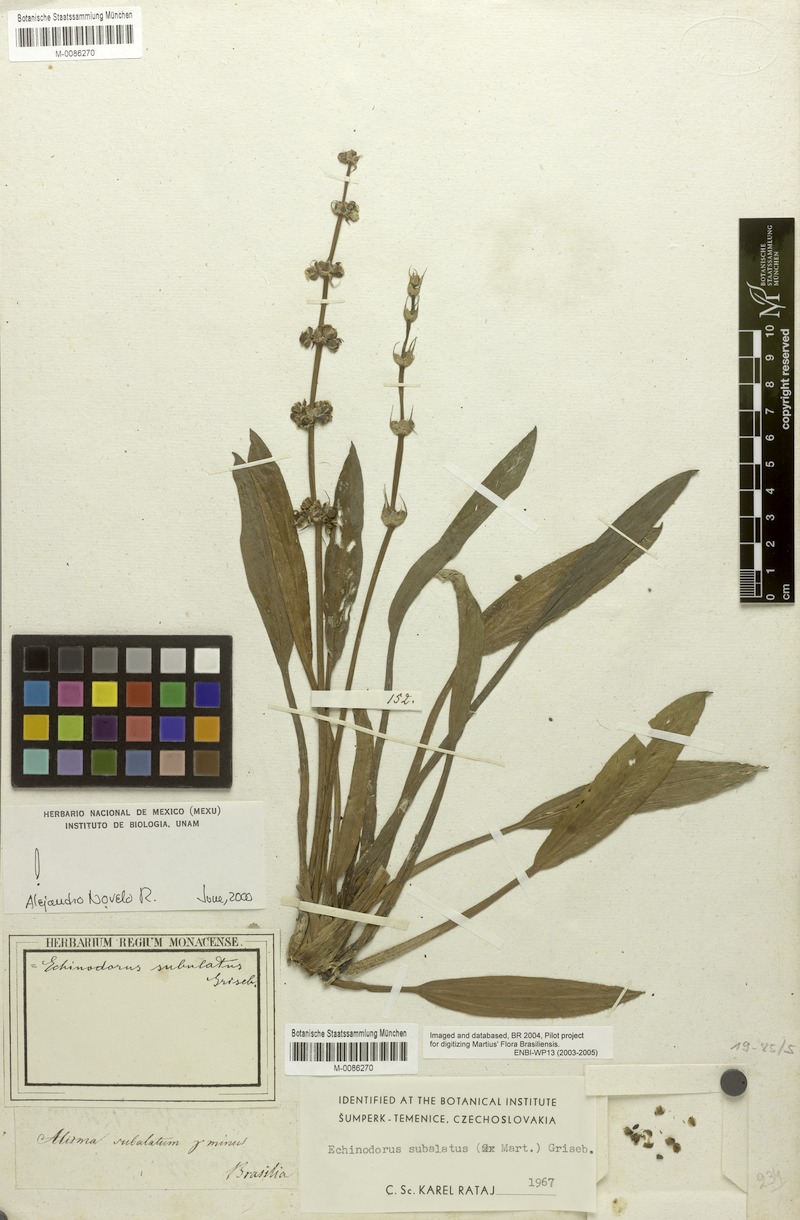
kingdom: Plantae
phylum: Tracheophyta
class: Liliopsida
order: Alismatales
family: Alismataceae
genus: Aquarius
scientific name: Aquarius subulatus
